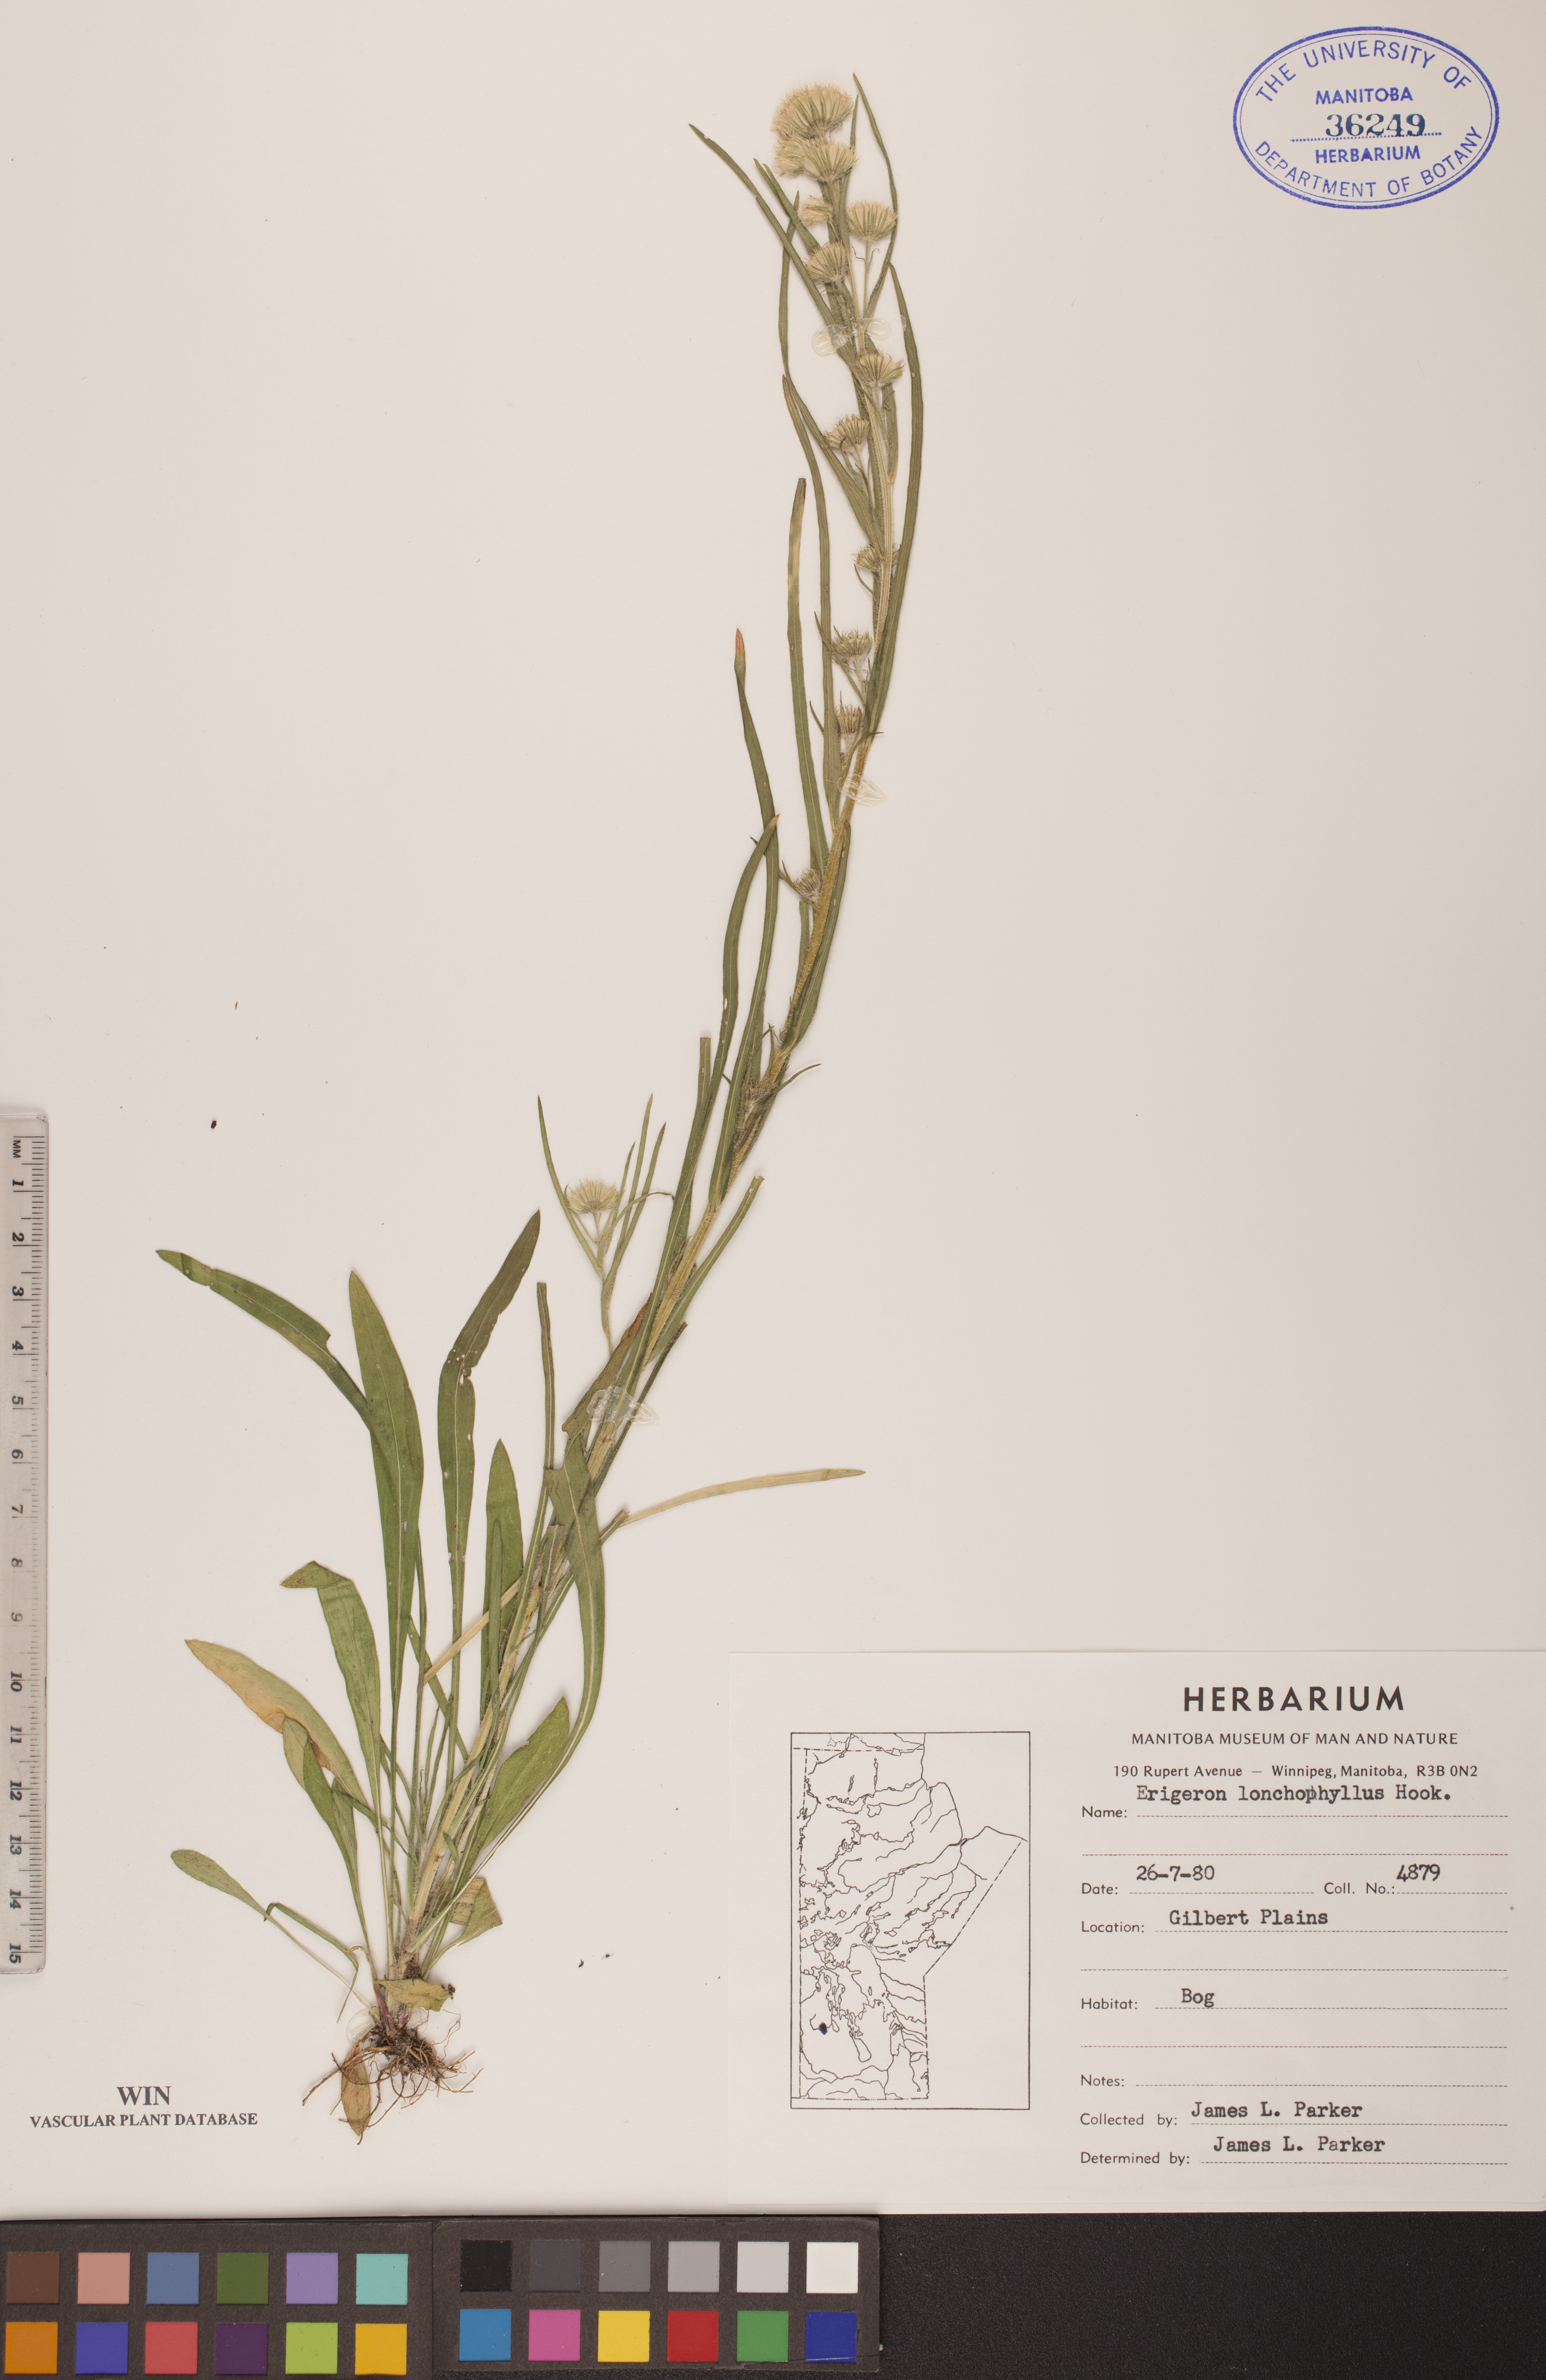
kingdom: Plantae
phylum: Tracheophyta
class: Magnoliopsida
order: Asterales
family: Asteraceae
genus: Erigeron
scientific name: Erigeron lonchophyllus
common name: Short-ray fleabane
